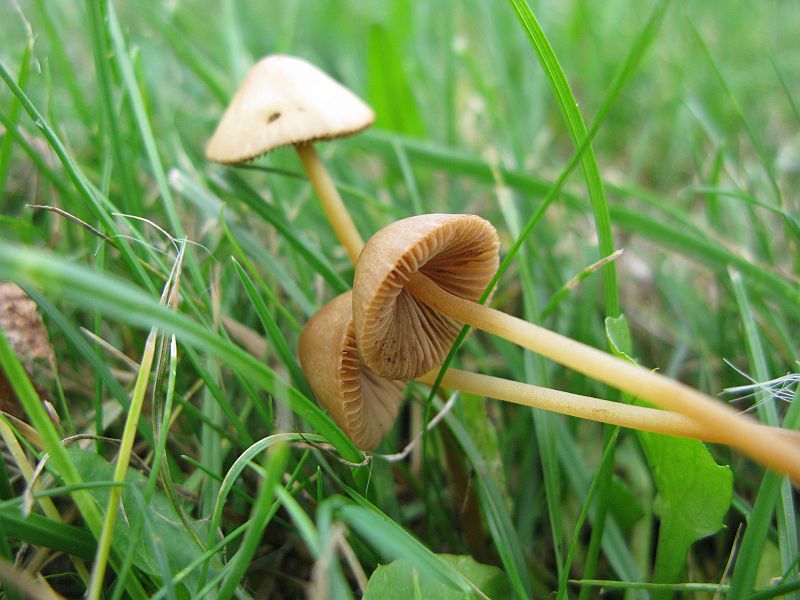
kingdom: Fungi
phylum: Basidiomycota
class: Agaricomycetes
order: Agaricales
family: Bolbitiaceae
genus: Conocybe
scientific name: Conocybe semiglobata
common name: halvkugleformet keglehat
